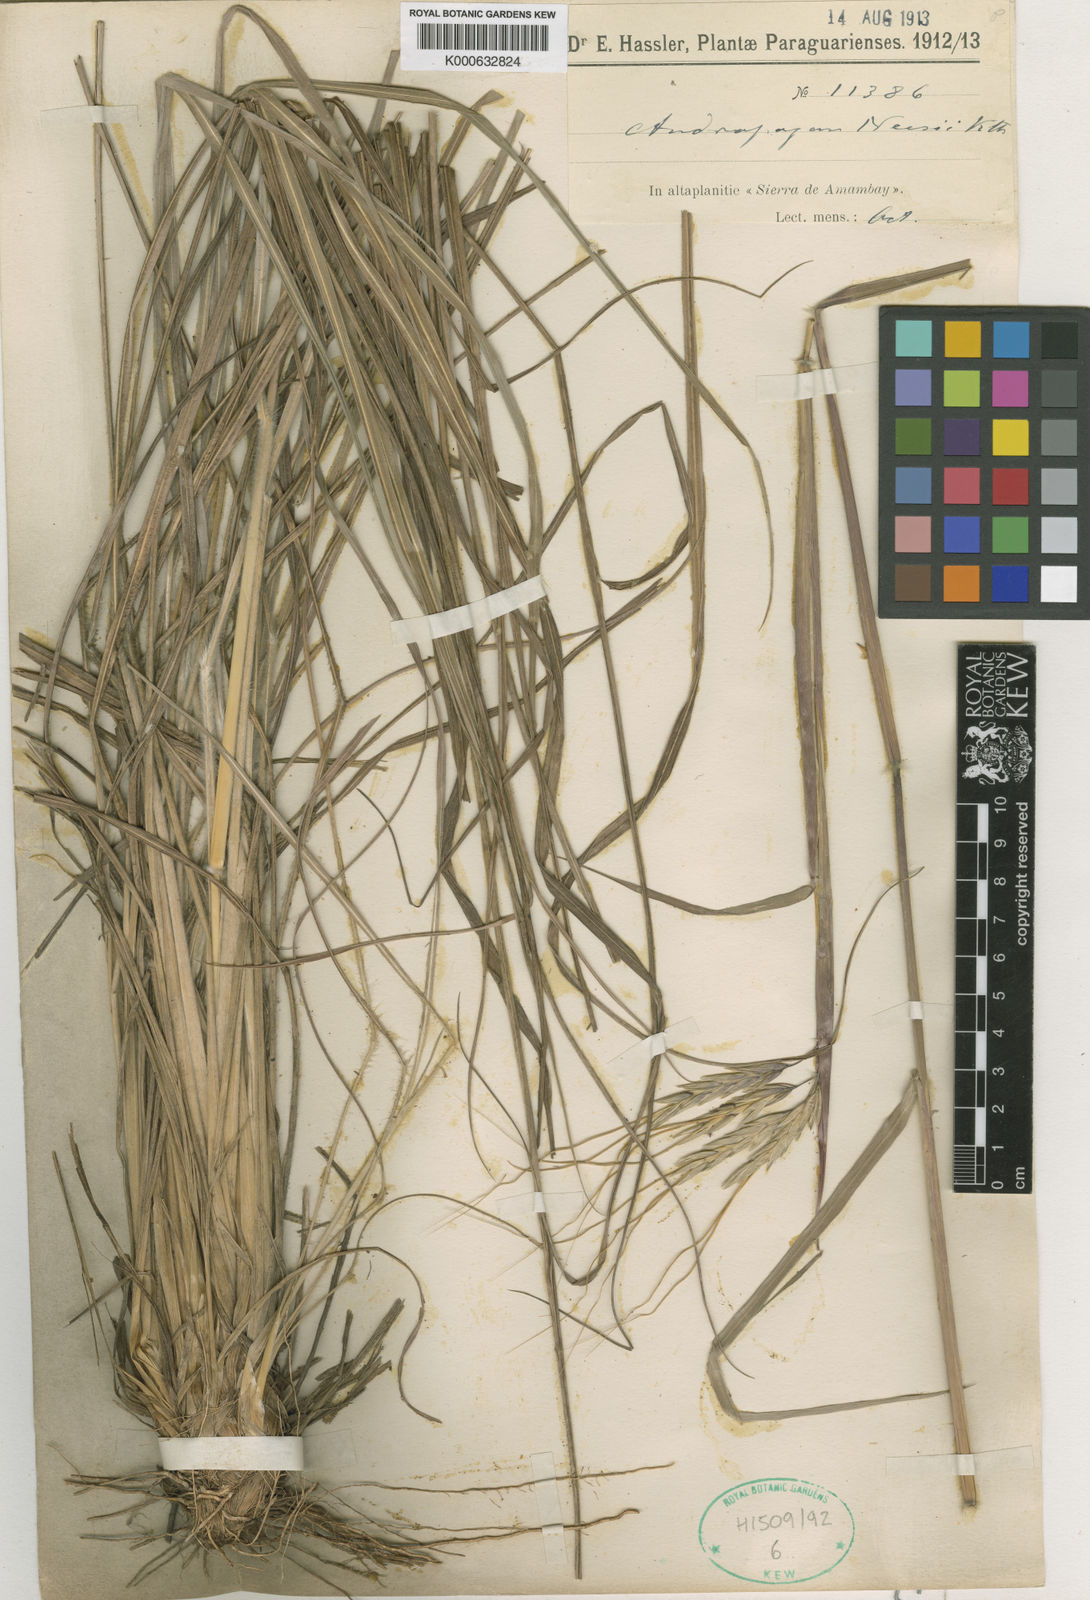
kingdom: Plantae
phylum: Tracheophyta
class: Liliopsida
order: Poales
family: Poaceae
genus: Agenium
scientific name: Agenium majus
